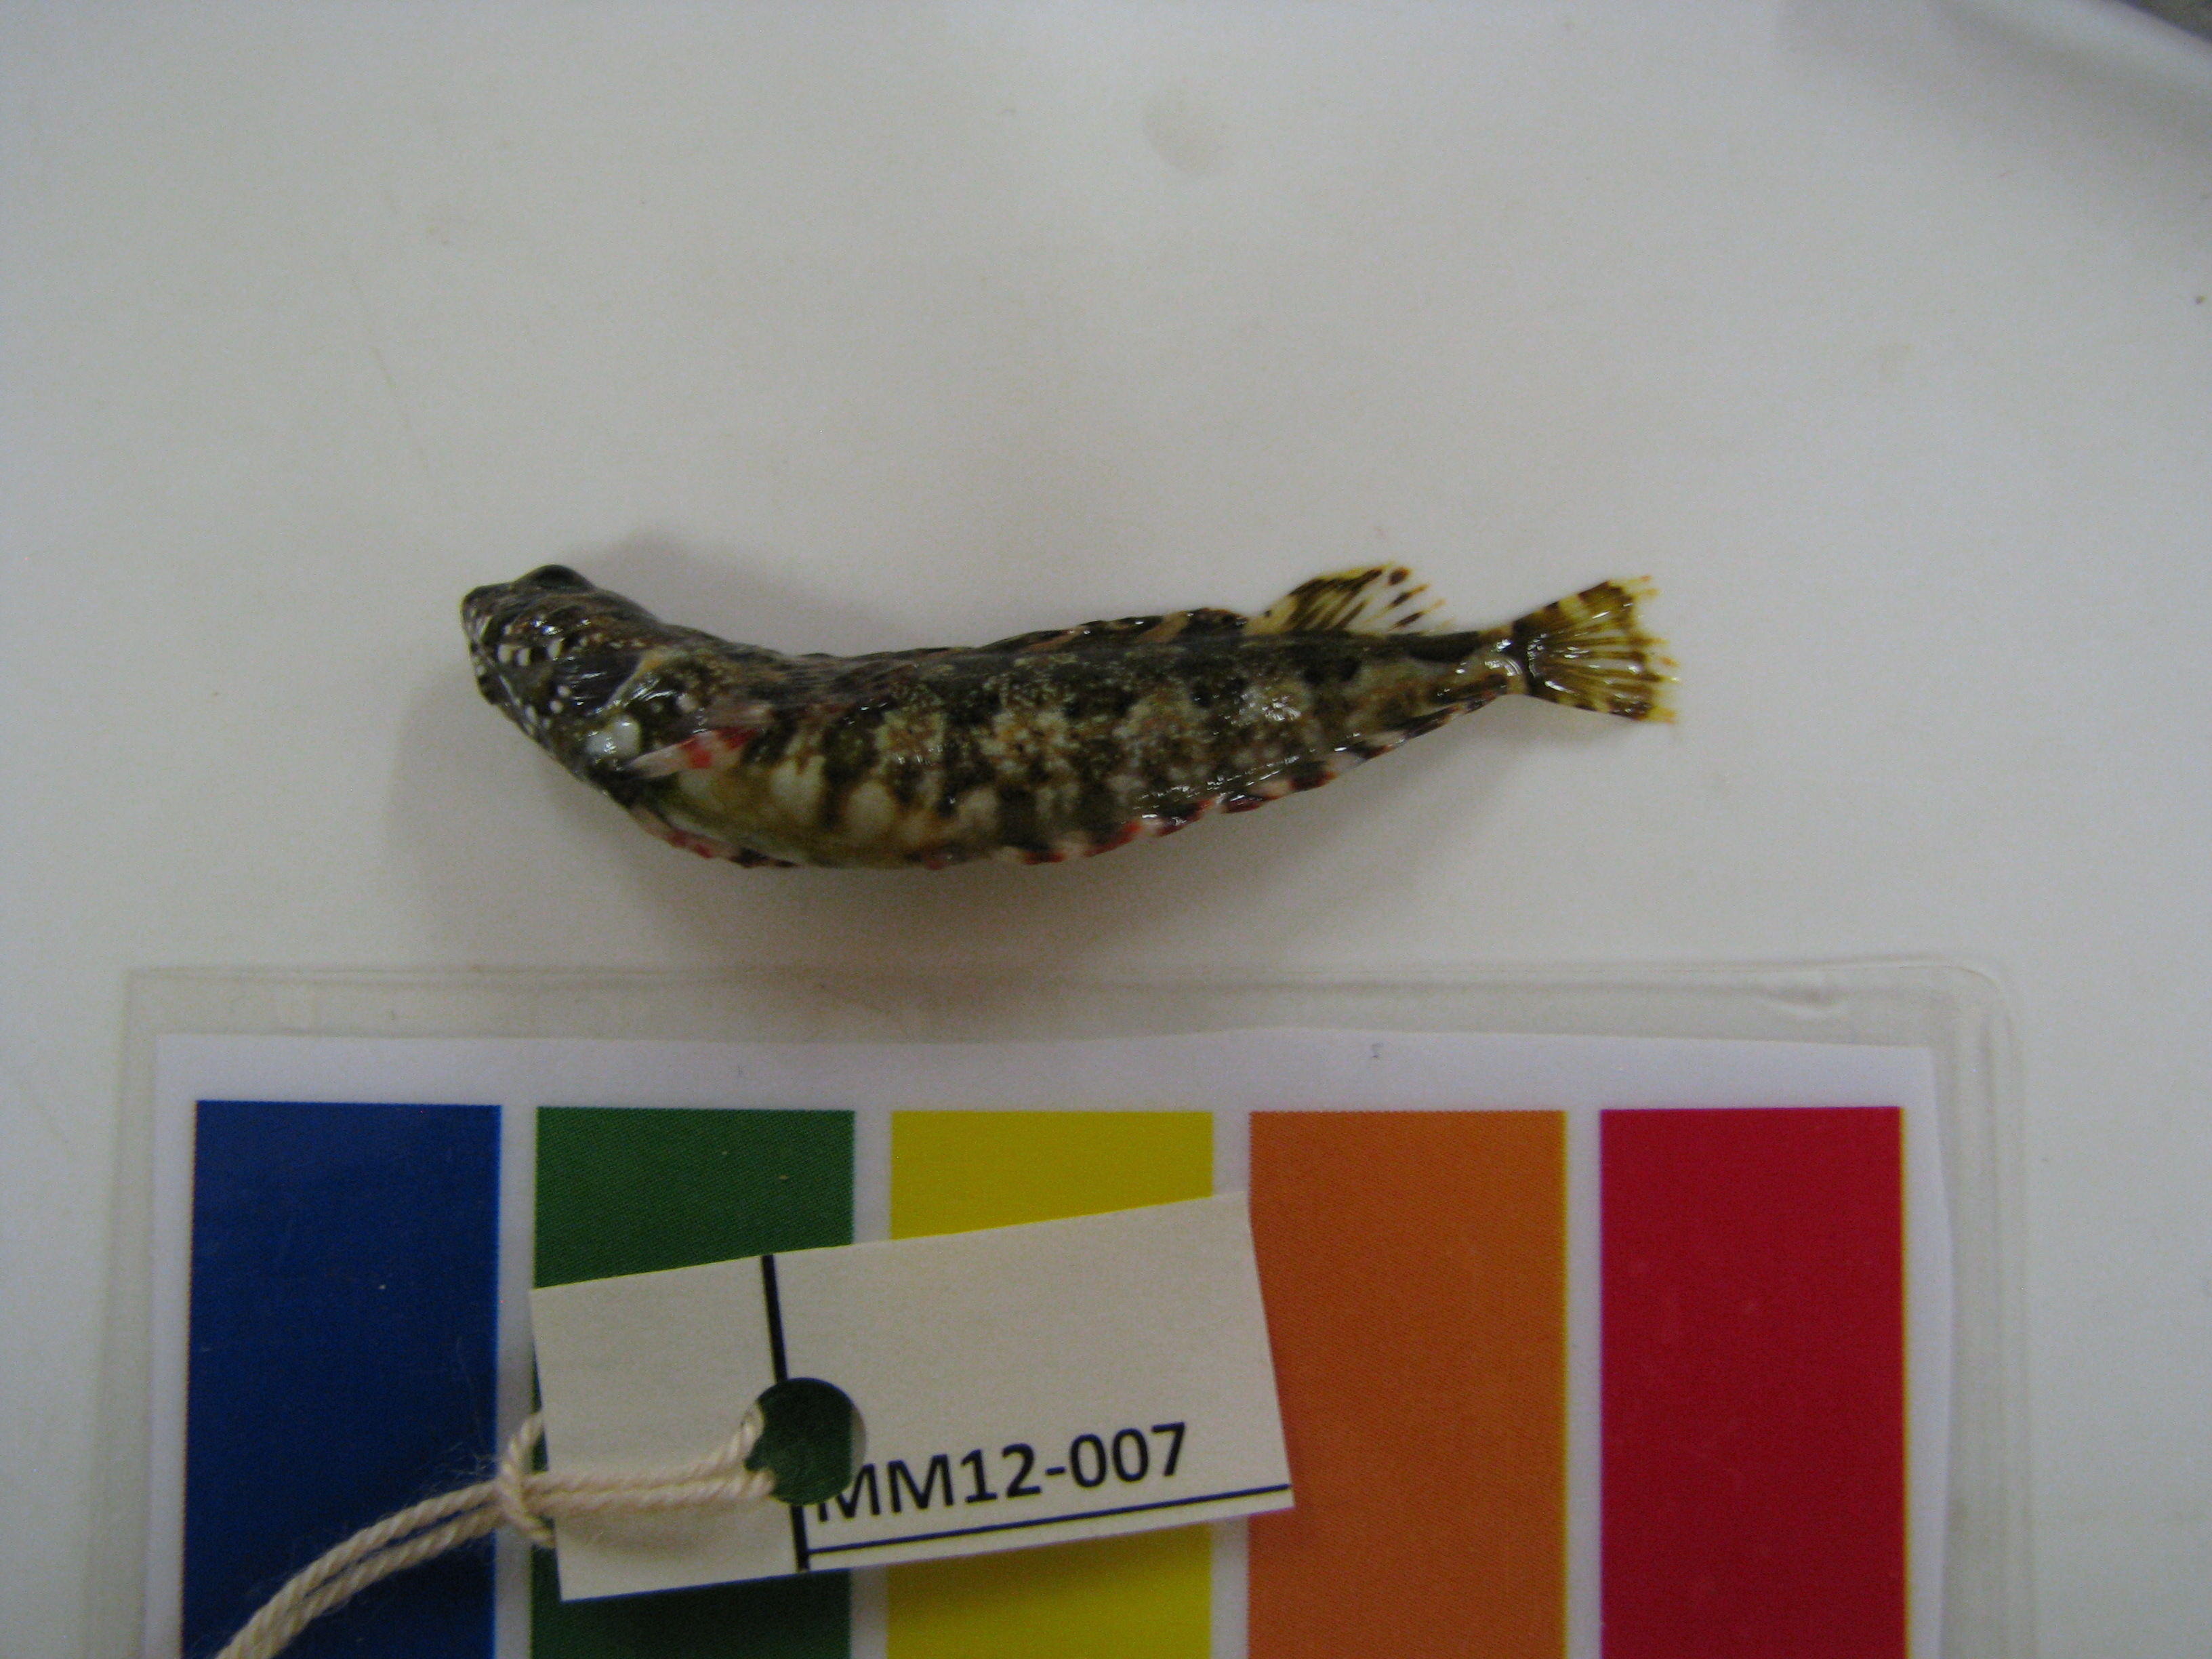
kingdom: Animalia
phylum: Chordata
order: Perciformes
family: Clinidae
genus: Blennioclinus
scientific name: Blennioclinus brachycephalus
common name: Lace klipfish
